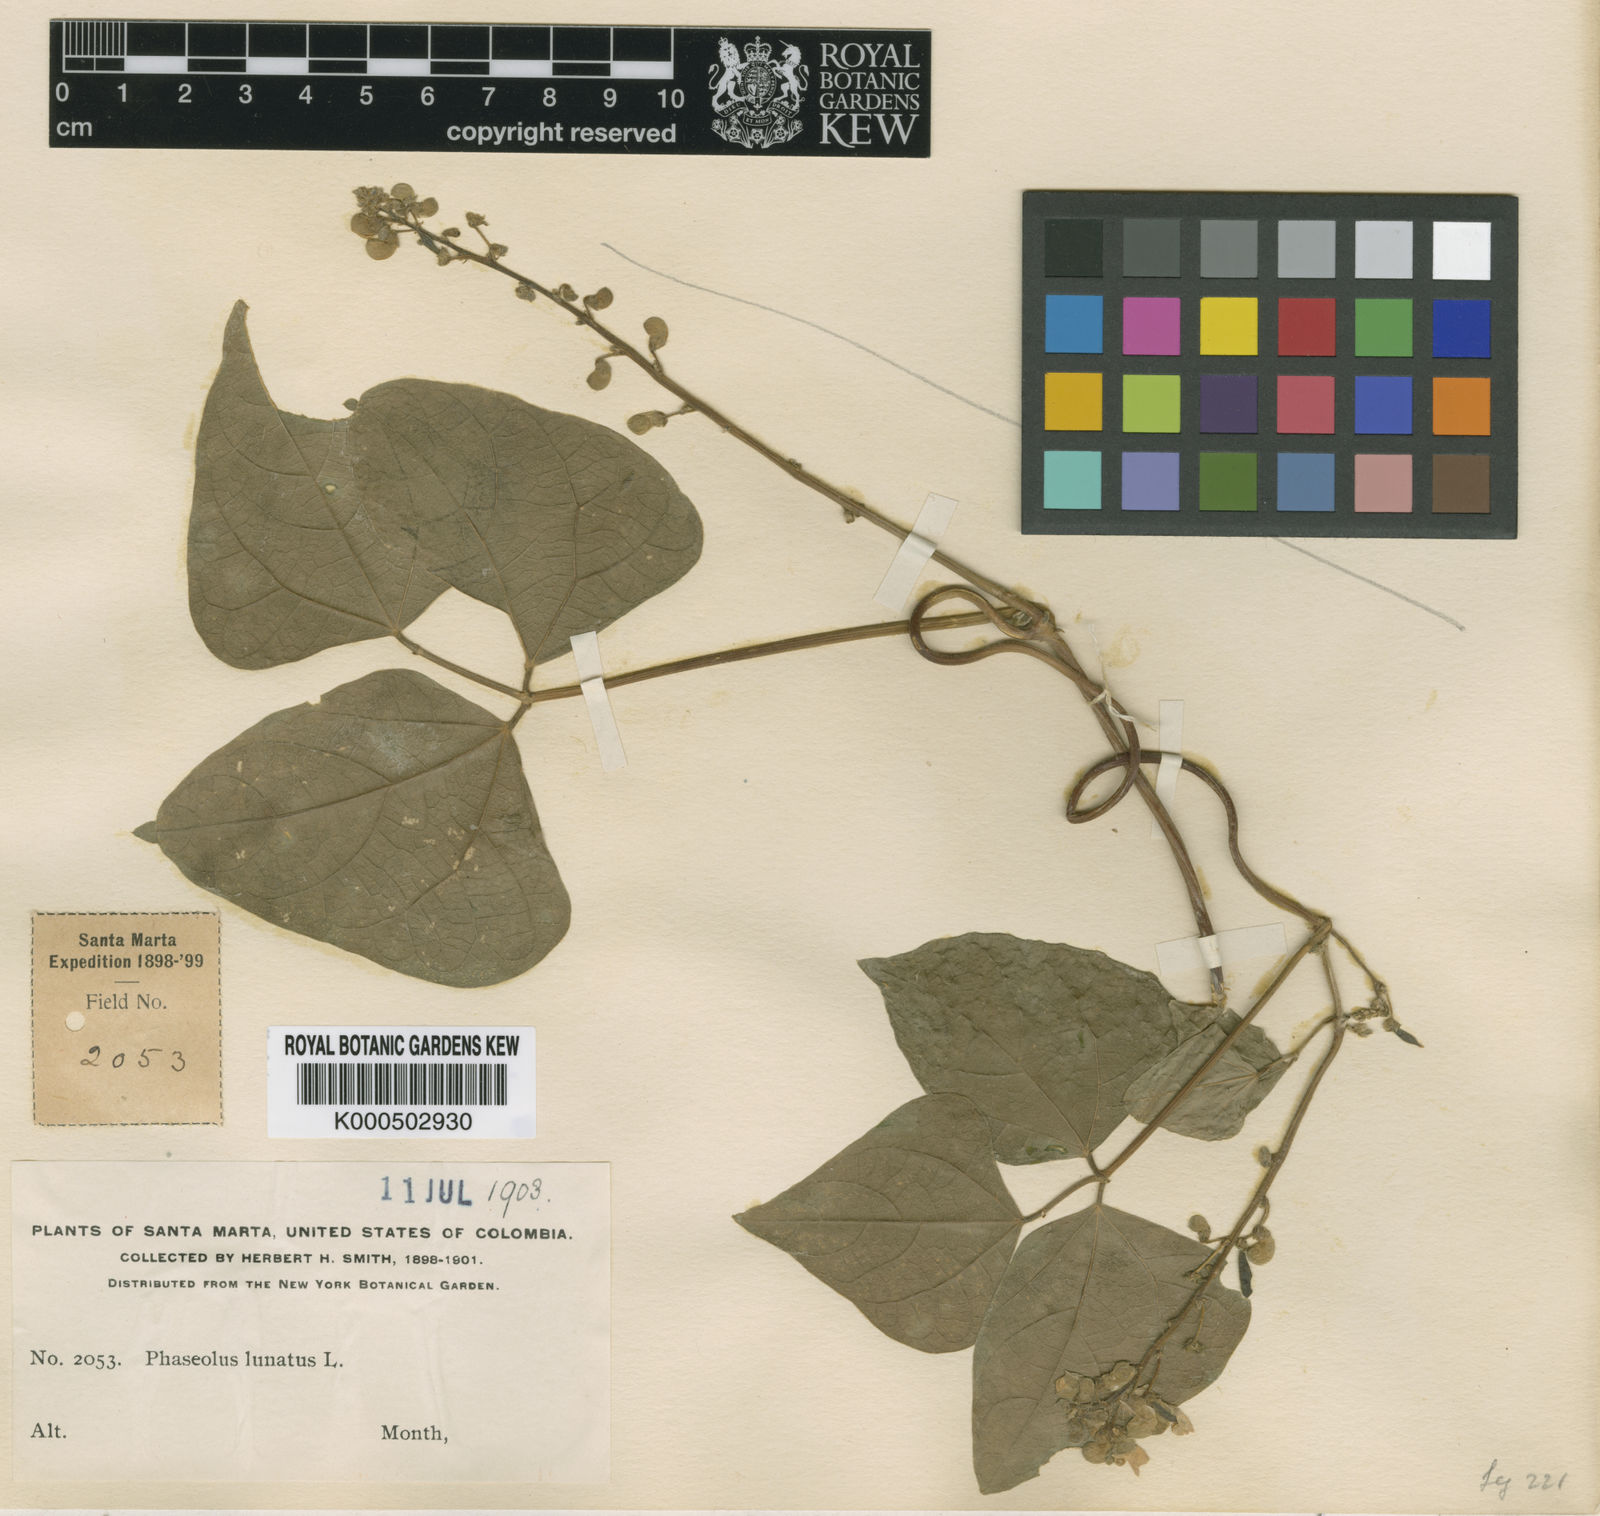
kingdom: Plantae
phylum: Tracheophyta
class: Magnoliopsida
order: Fabales
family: Fabaceae
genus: Phaseolus
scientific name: Phaseolus lunatus
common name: Sieva bean
